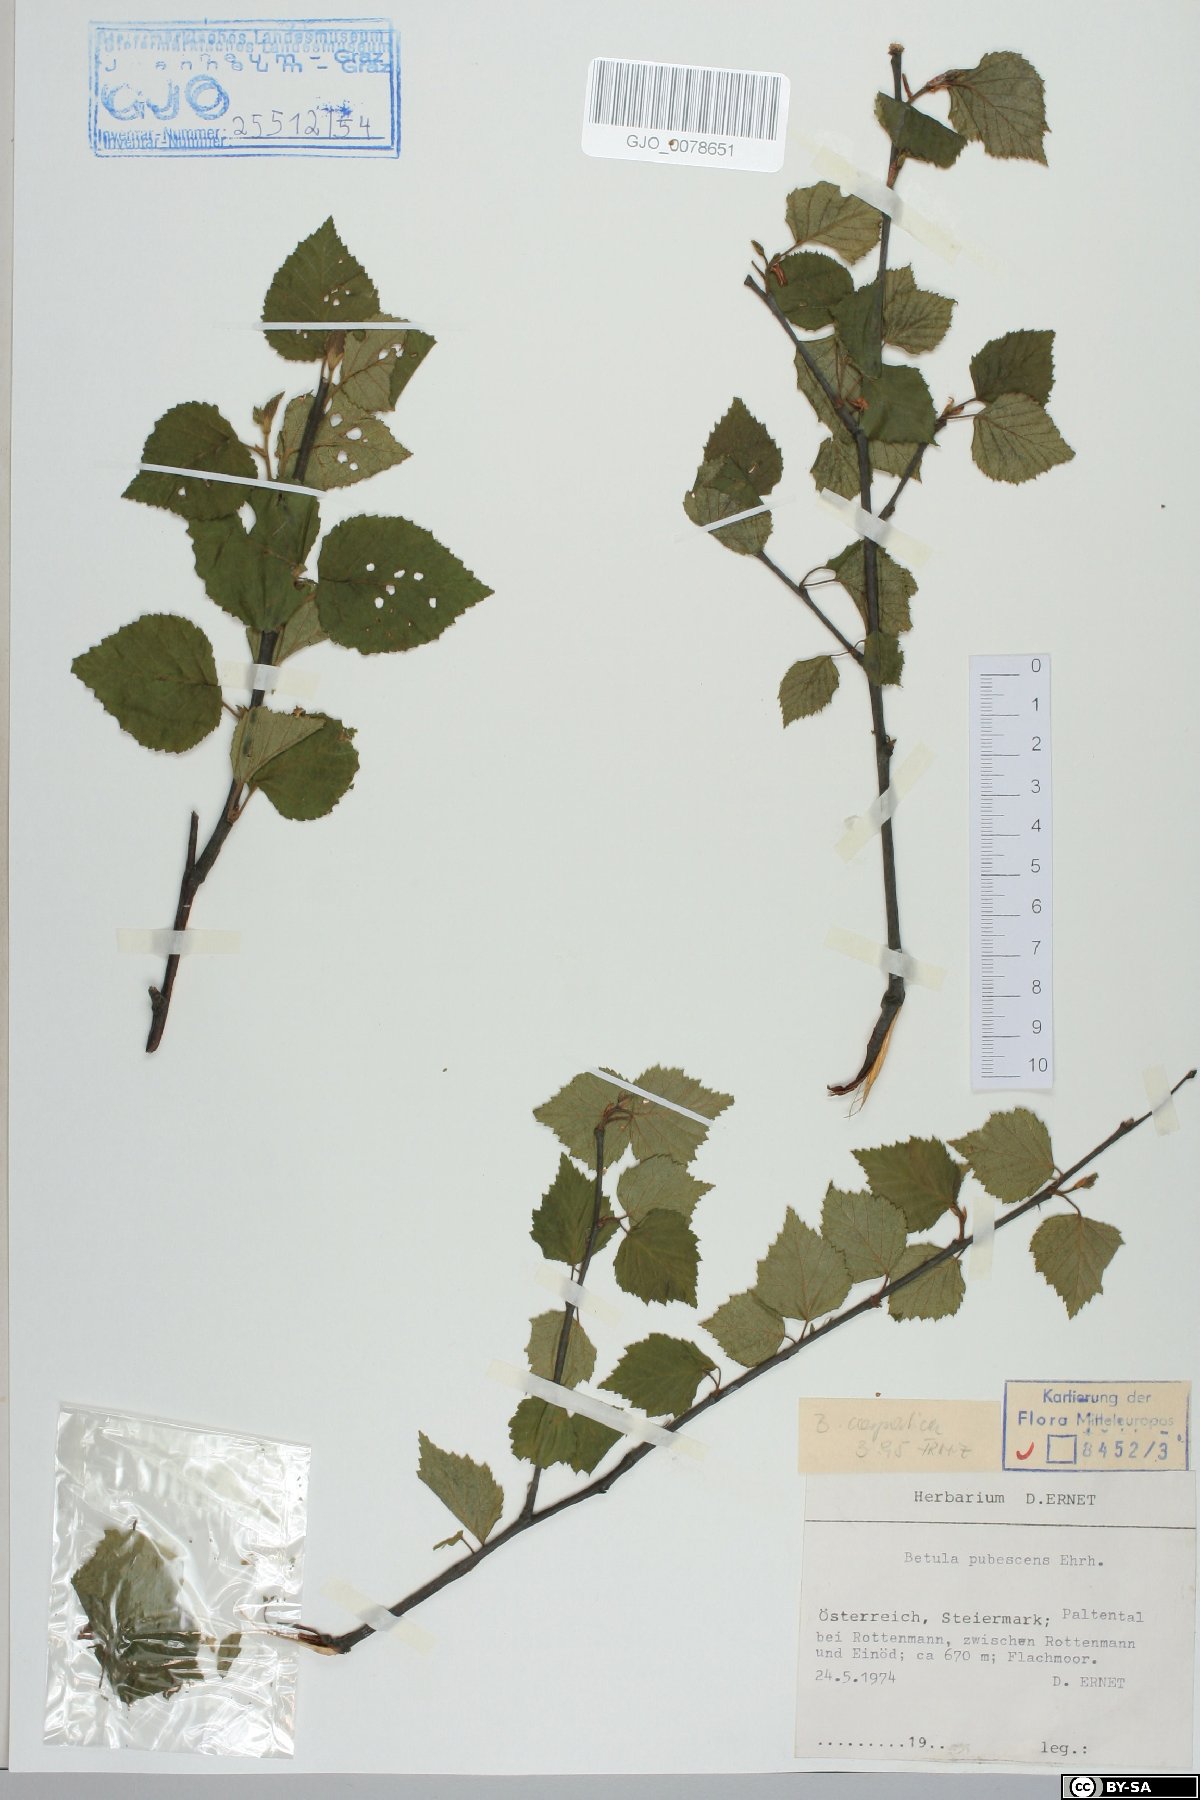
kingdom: Plantae
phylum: Tracheophyta
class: Magnoliopsida
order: Fagales
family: Betulaceae
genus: Betula
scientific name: Betula pubescens
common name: Downy birch
